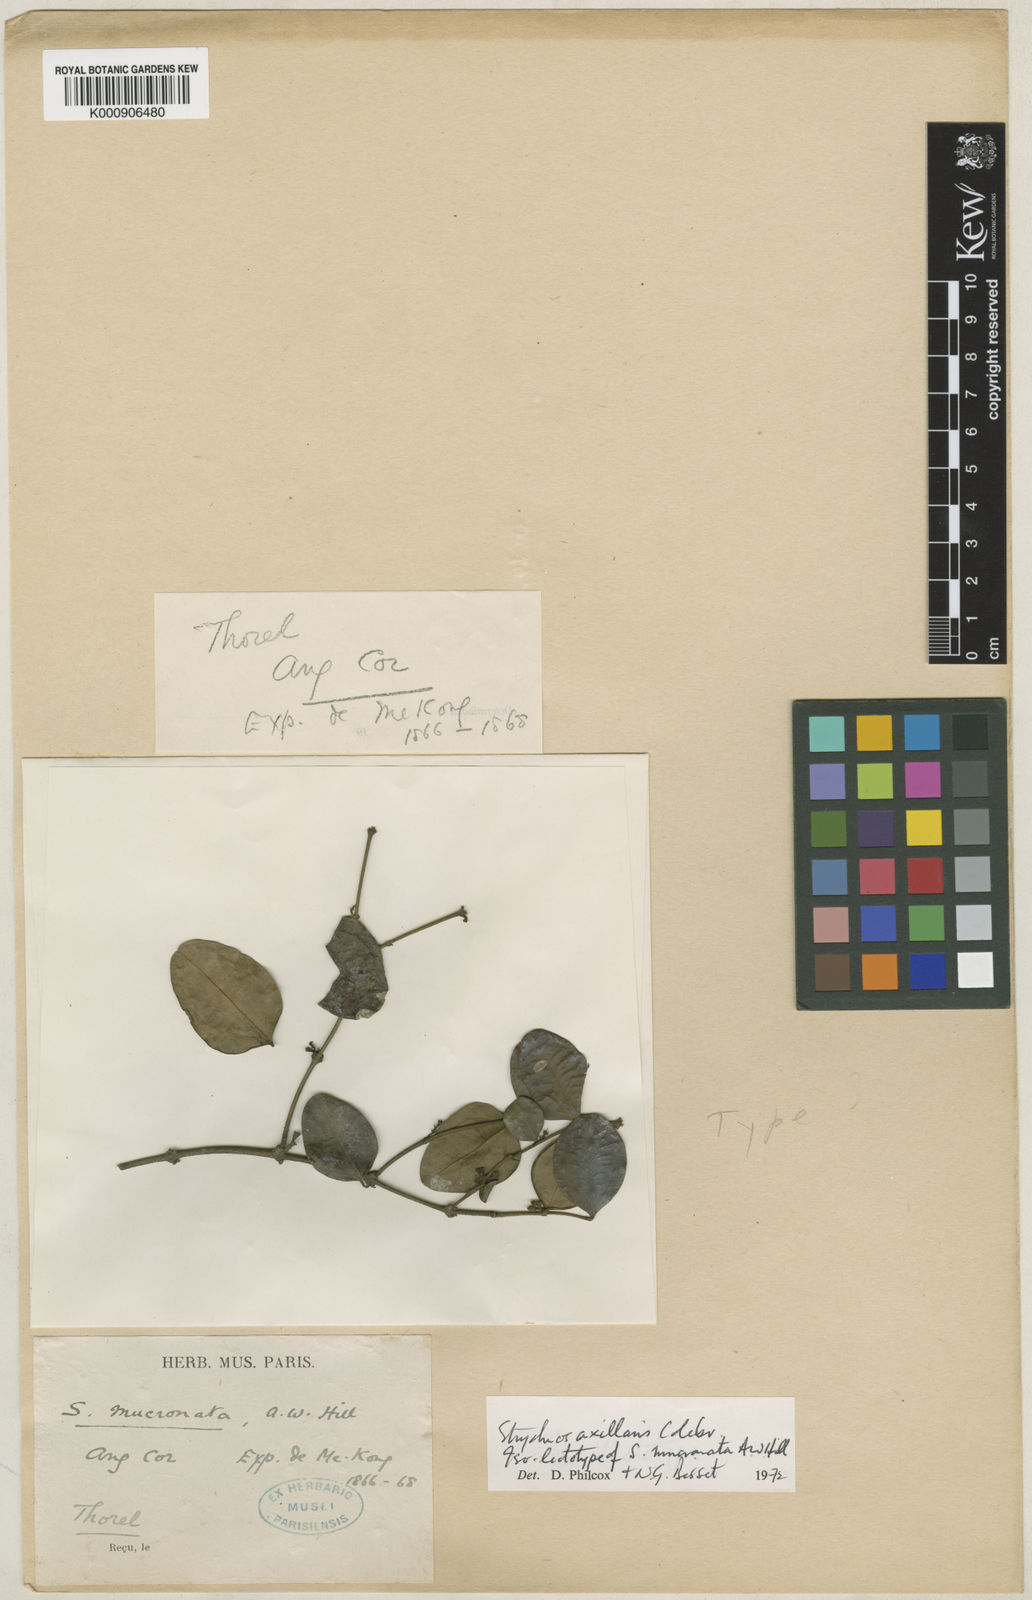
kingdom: Plantae
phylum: Tracheophyta
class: Magnoliopsida
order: Gentianales
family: Loganiaceae
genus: Strychnos
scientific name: Strychnos axillaris
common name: Strychninebush
